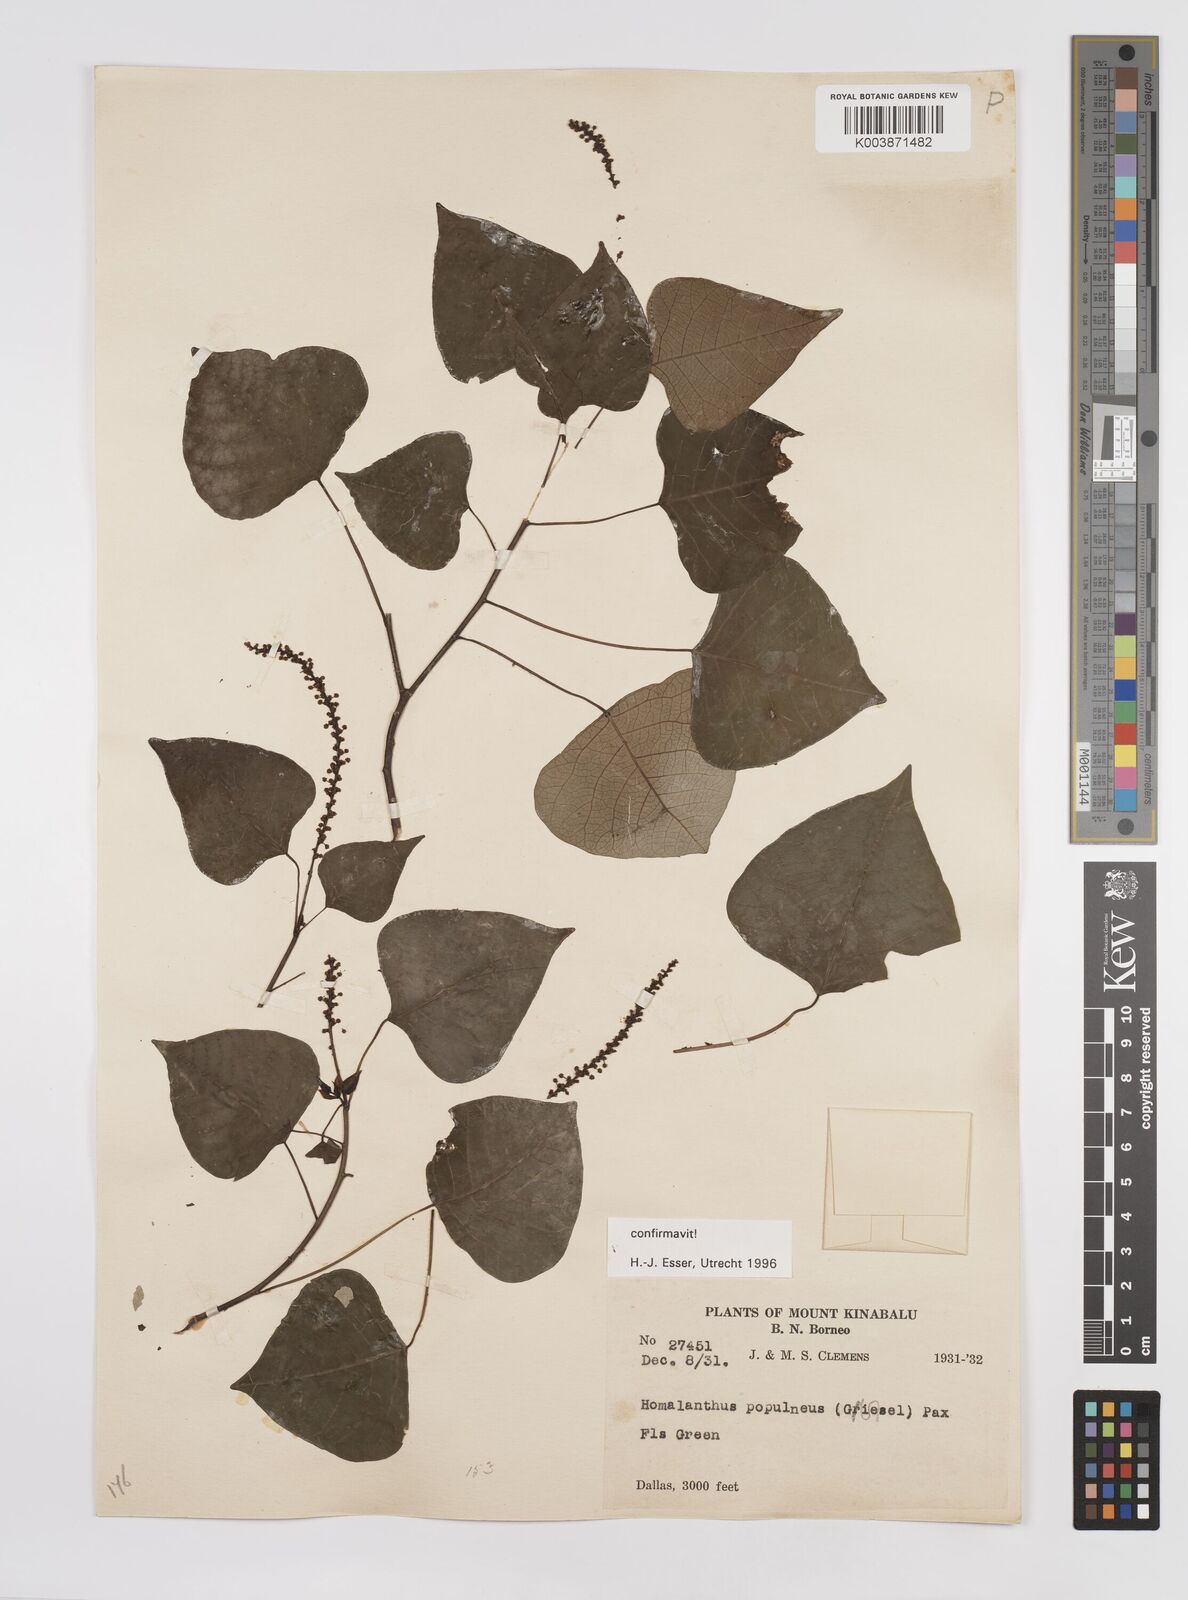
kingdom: Plantae
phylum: Tracheophyta
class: Magnoliopsida
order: Malpighiales
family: Euphorbiaceae
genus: Homalanthus
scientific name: Homalanthus populneus
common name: Spurge
